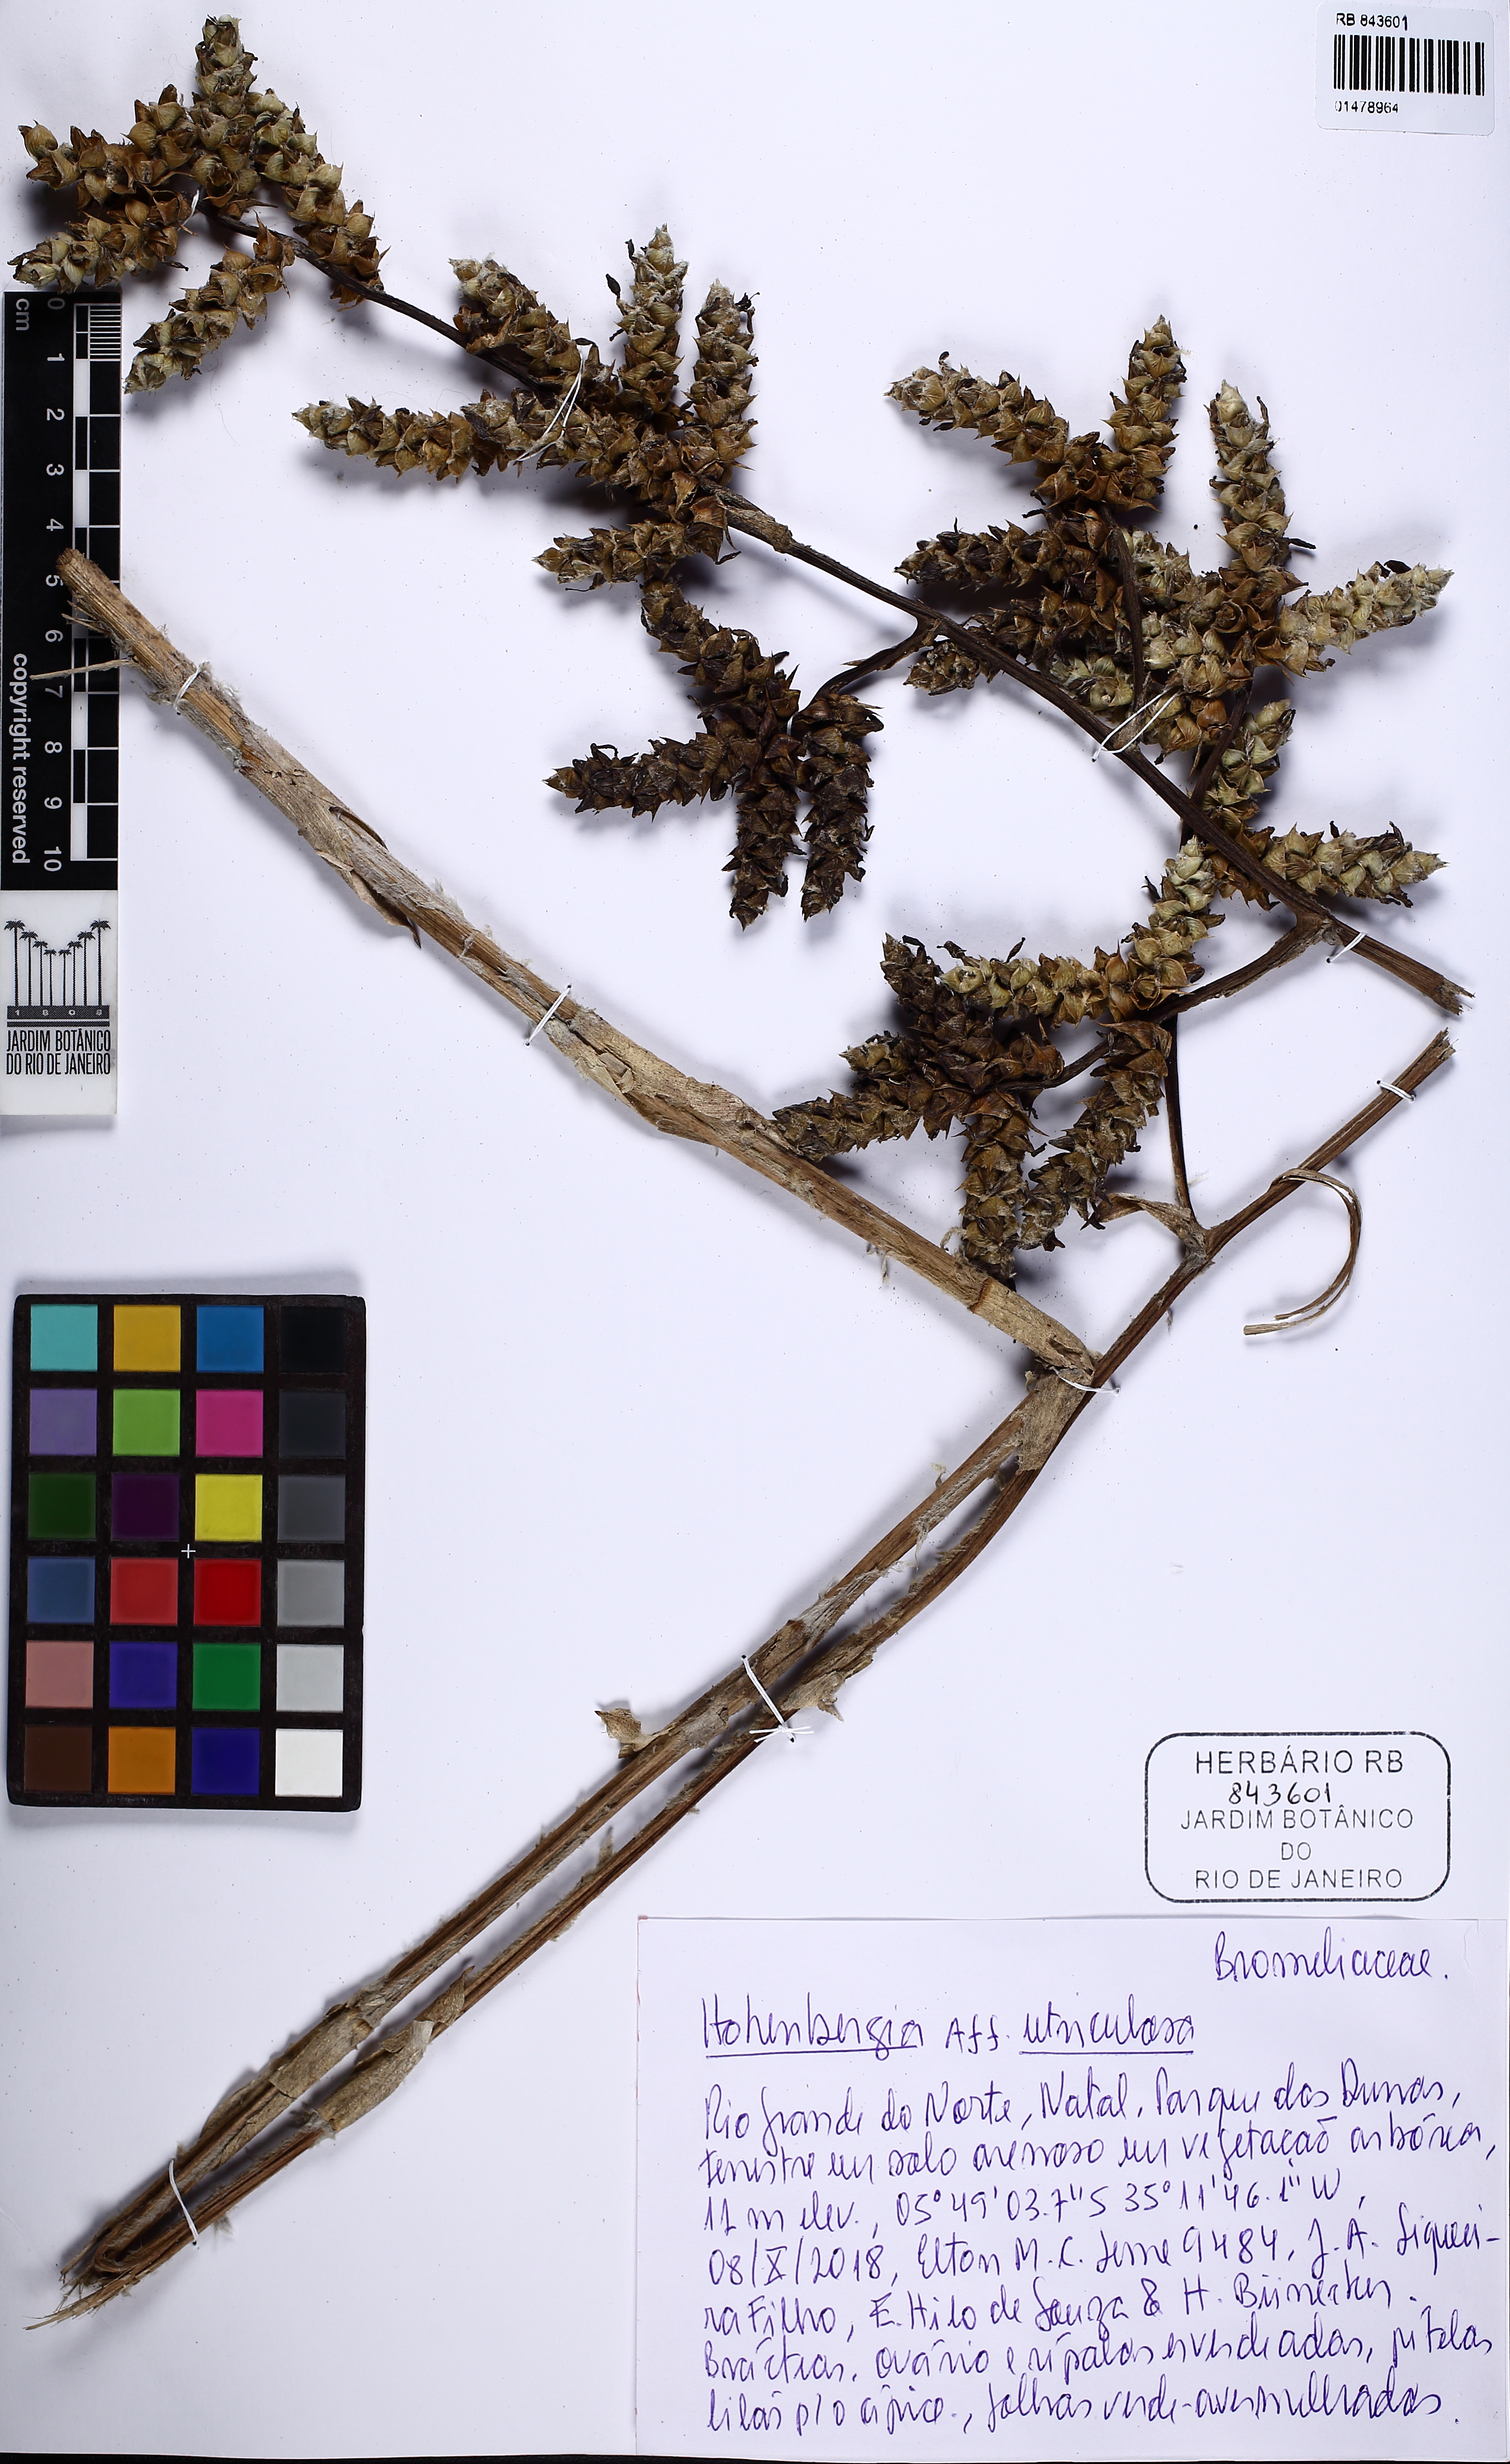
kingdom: Plantae
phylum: Tracheophyta
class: Liliopsida
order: Poales
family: Bromeliaceae
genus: Hohenbergia
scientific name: Hohenbergia utriculosa
